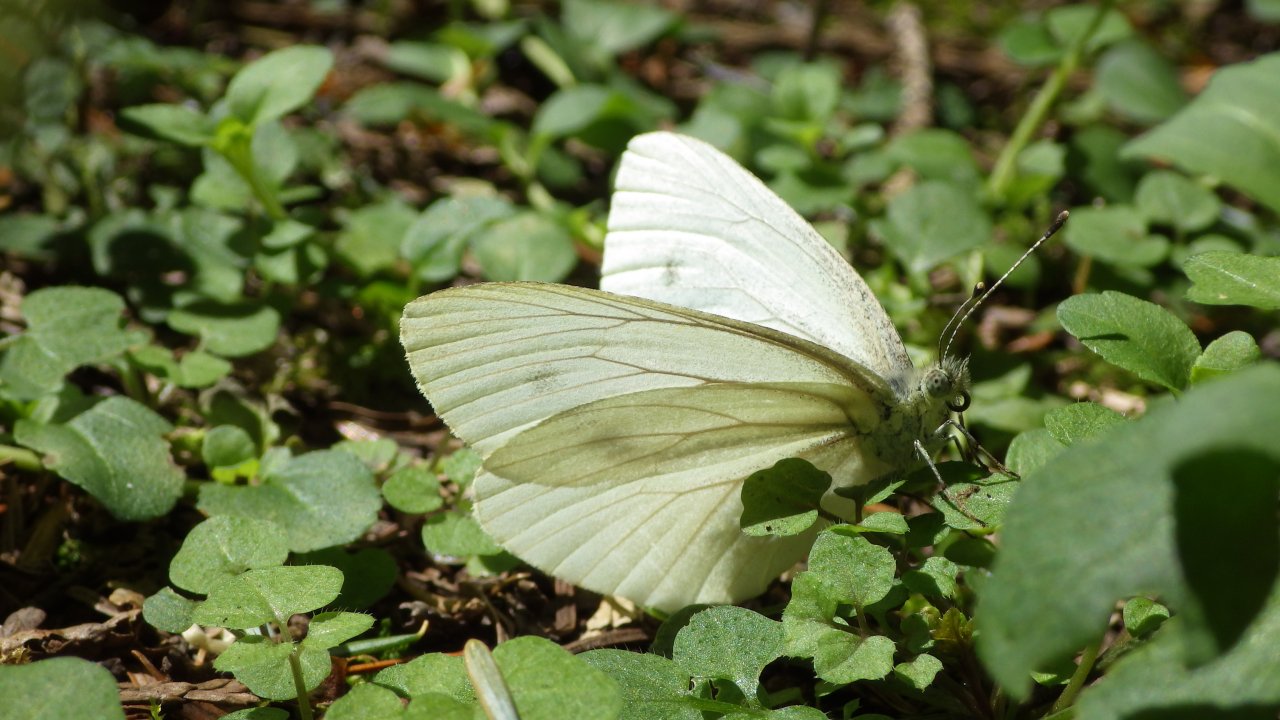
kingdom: Animalia
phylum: Arthropoda
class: Insecta
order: Lepidoptera
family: Pieridae
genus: Pieris
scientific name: Pieris oleracea
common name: Mustard White
